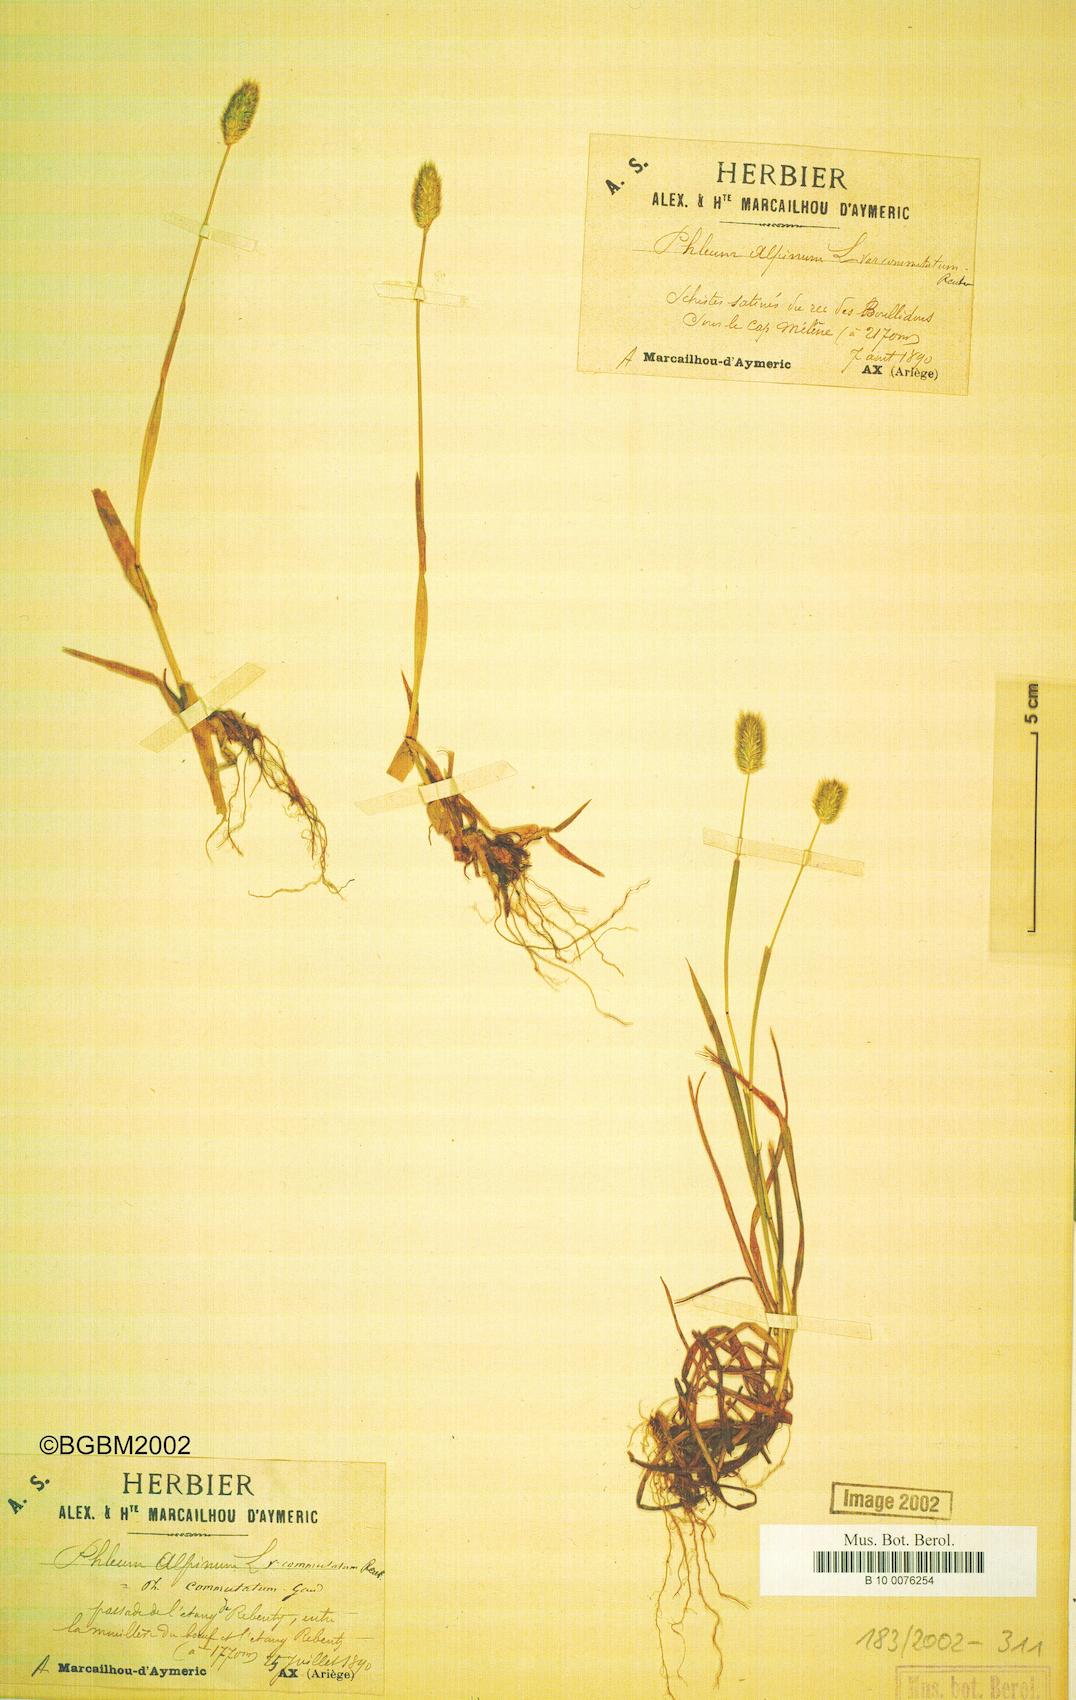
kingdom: Plantae
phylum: Tracheophyta
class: Liliopsida
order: Poales
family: Poaceae
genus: Phleum
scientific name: Phleum alpinum
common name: Alpine cat's-tail
